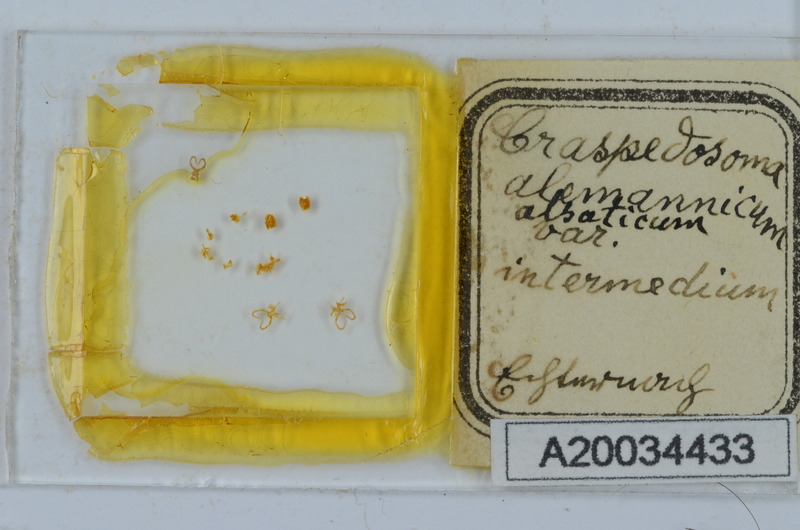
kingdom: Animalia
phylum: Arthropoda
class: Diplopoda
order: Chordeumatida
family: Craspedosomatidae
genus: Craspedosoma
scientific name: Craspedosoma rawlinsii
